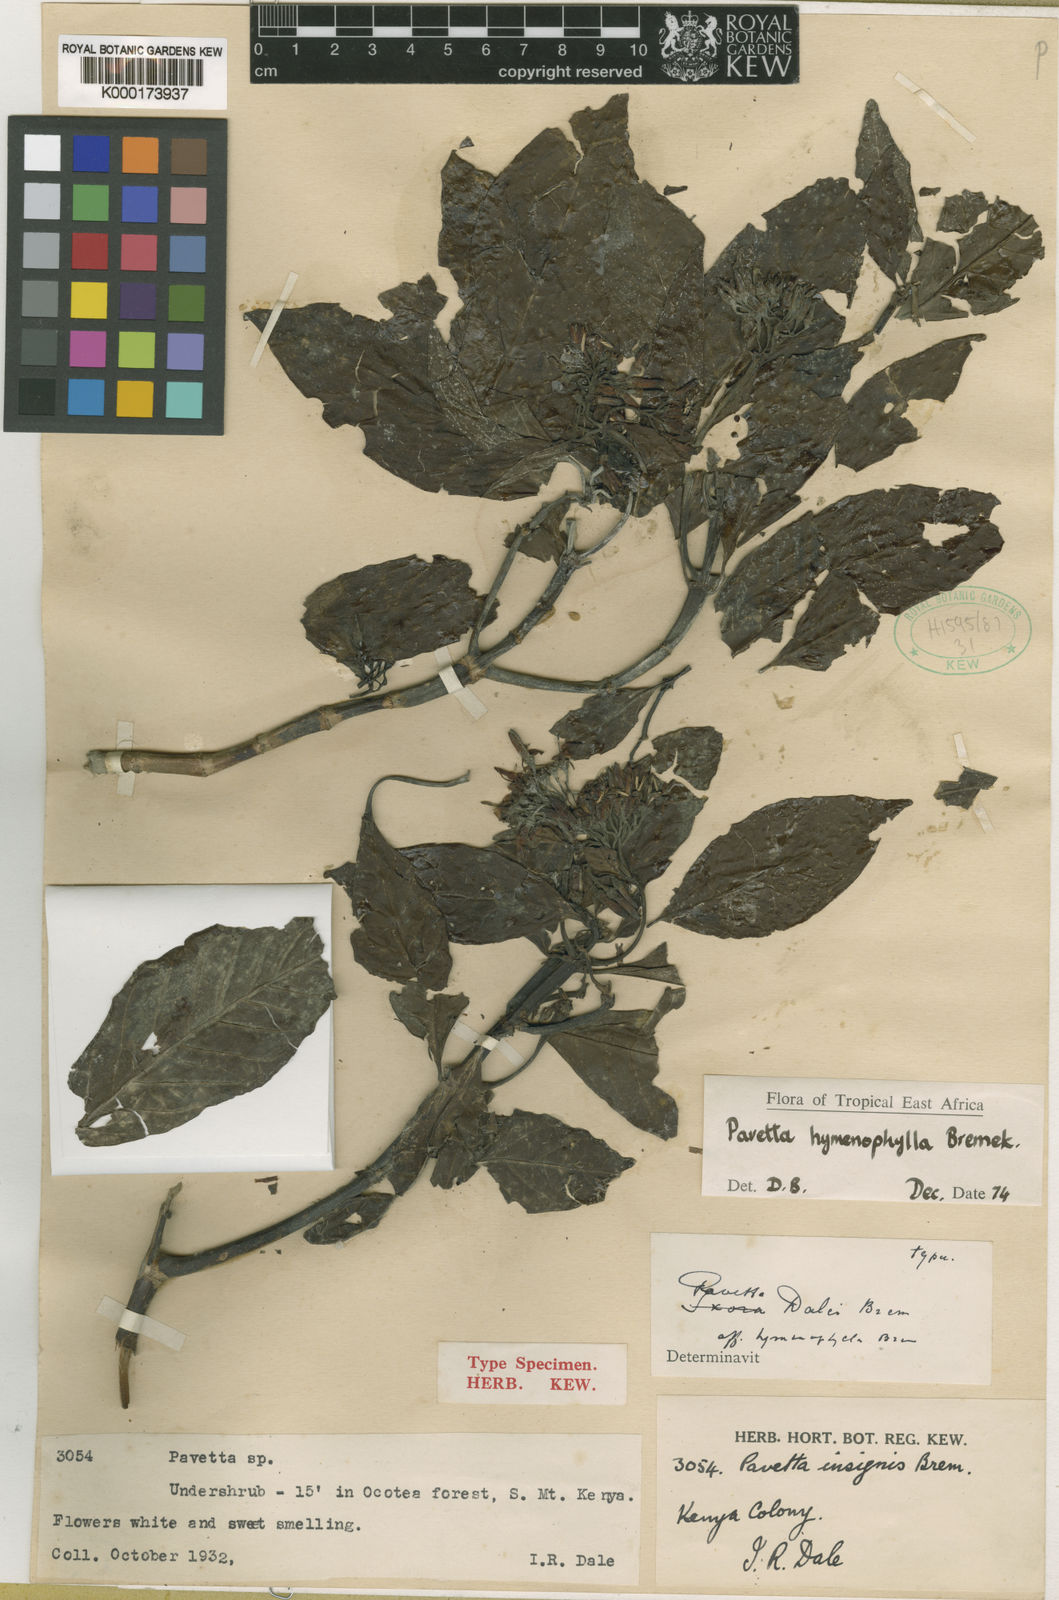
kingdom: Plantae
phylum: Tracheophyta
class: Magnoliopsida
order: Gentianales
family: Rubiaceae
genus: Pavetta
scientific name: Pavetta hymenophylla
